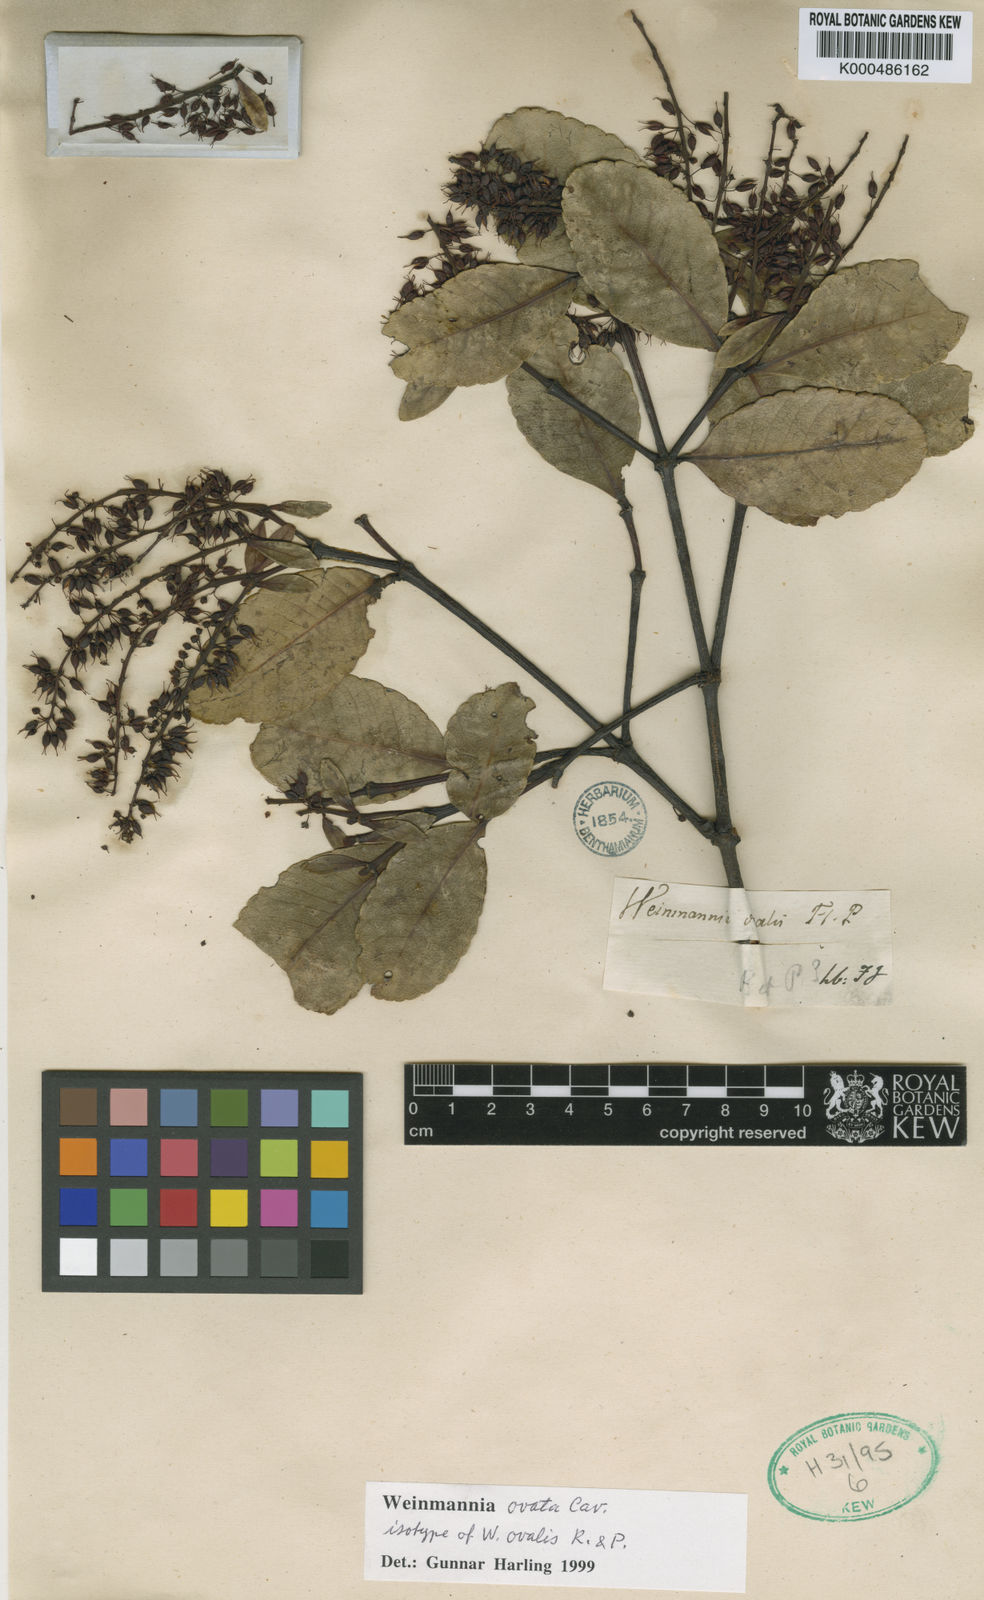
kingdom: Plantae
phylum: Tracheophyta
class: Magnoliopsida
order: Oxalidales
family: Cunoniaceae
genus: Weinmannia
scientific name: Weinmannia ovata
